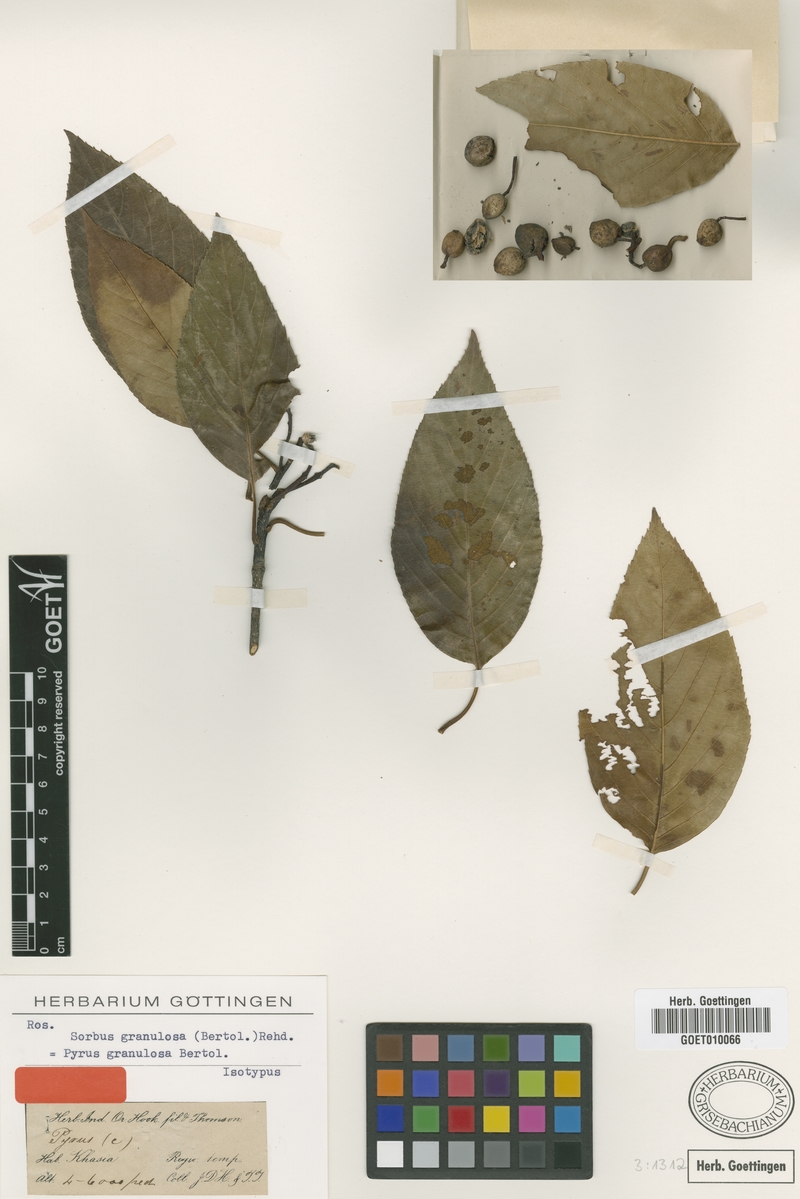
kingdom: Plantae
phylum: Tracheophyta
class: Magnoliopsida
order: Rosales
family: Rosaceae
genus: Sorbus
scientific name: Sorbus granulosa
